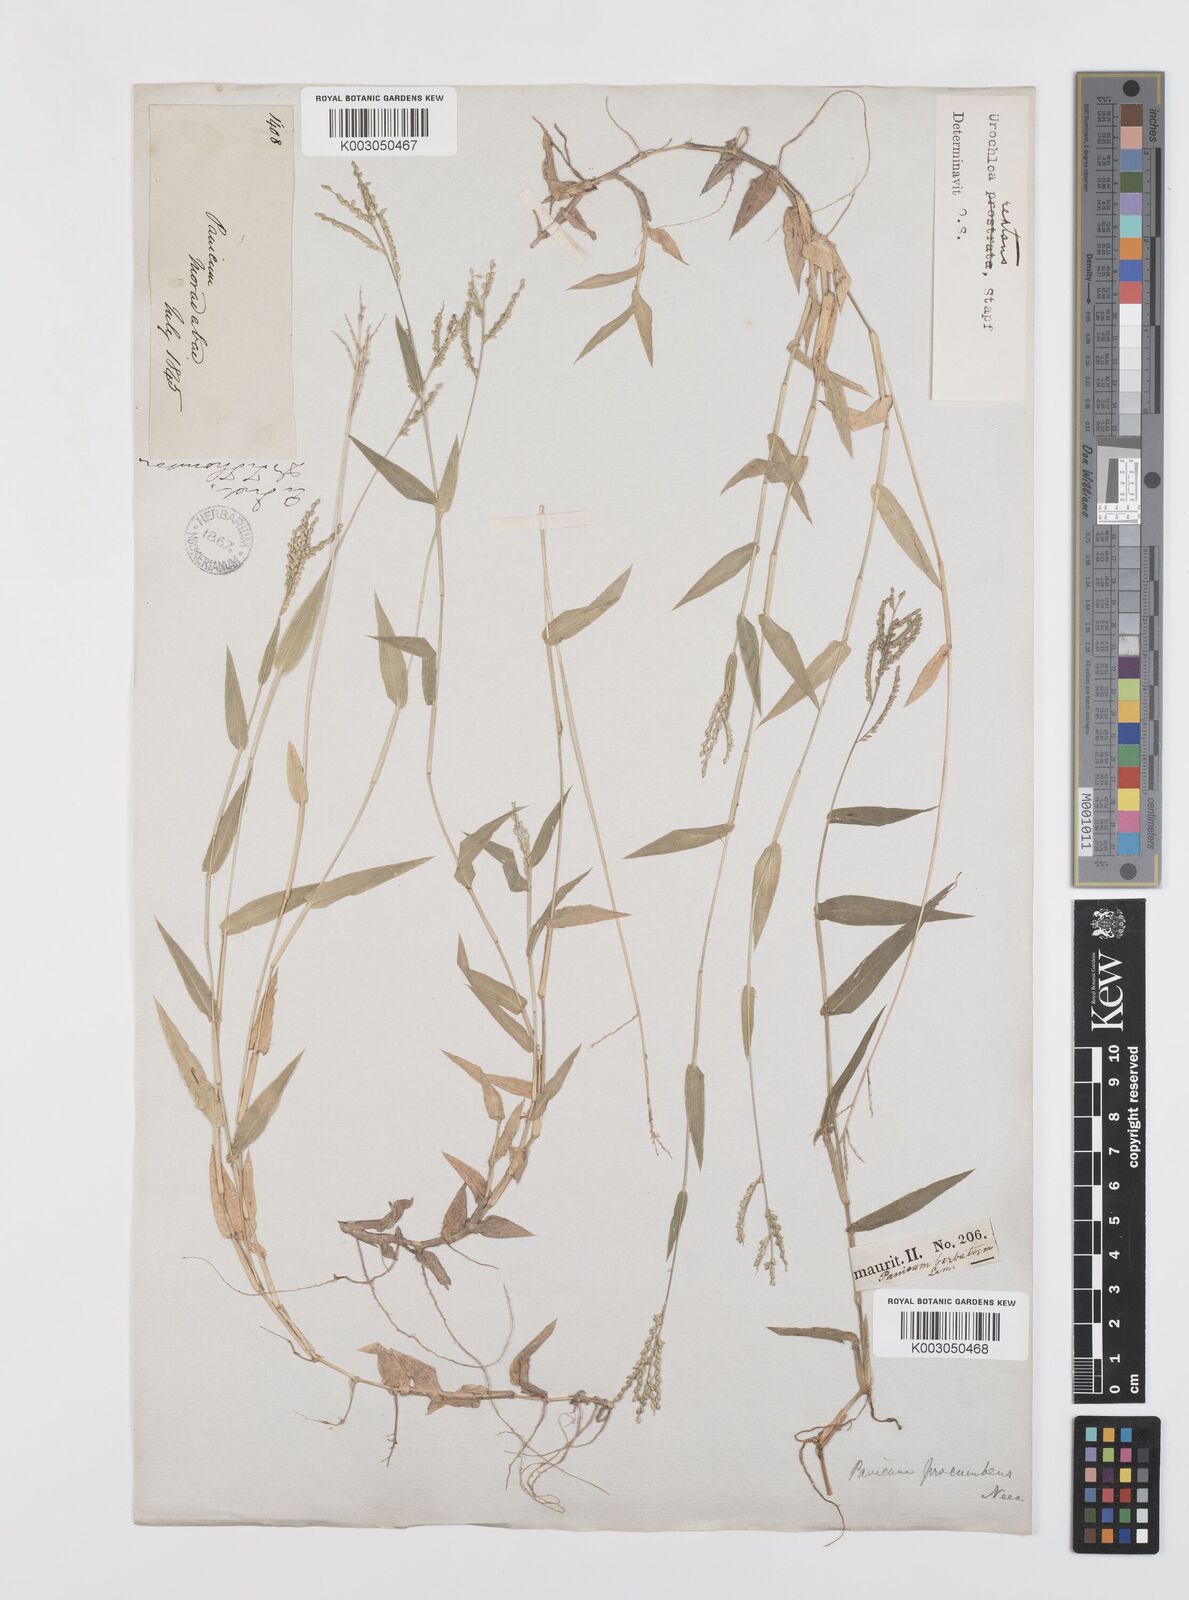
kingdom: Plantae
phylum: Tracheophyta
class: Liliopsida
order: Poales
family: Poaceae
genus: Urochloa
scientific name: Urochloa reptans
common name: Sprawling signalgrass
